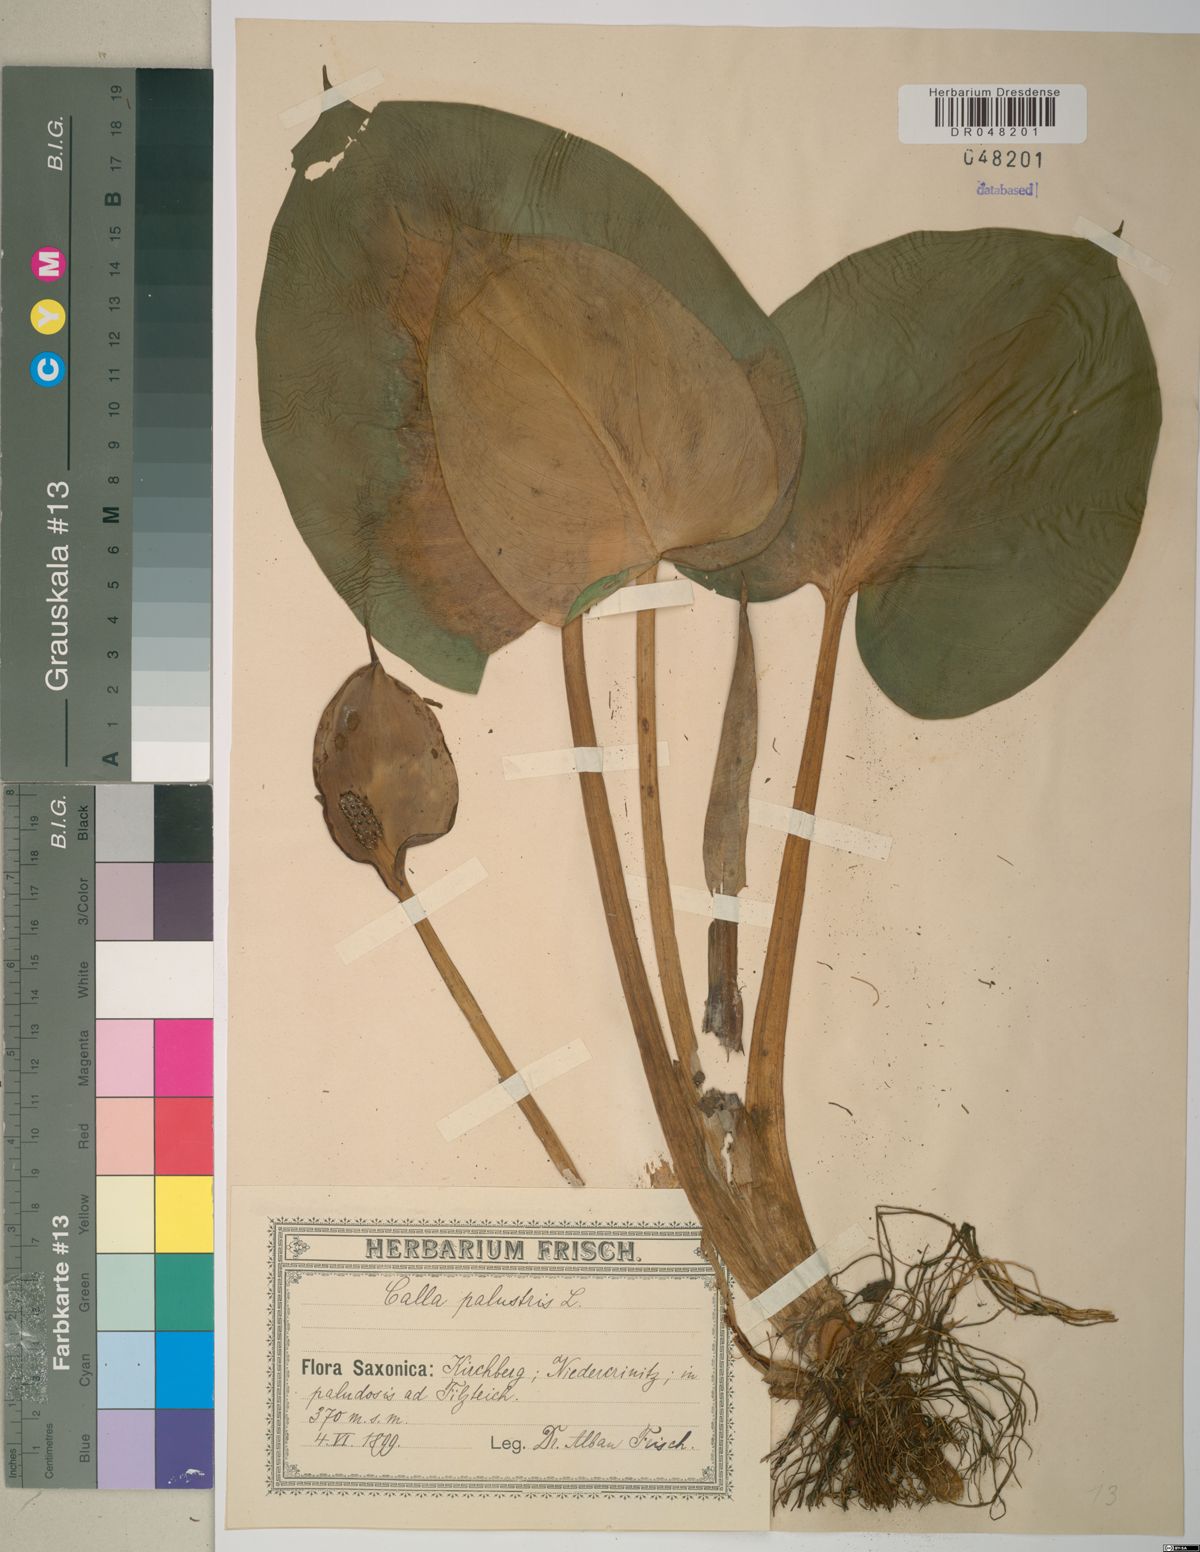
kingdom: Plantae
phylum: Tracheophyta
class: Liliopsida
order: Alismatales
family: Araceae
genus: Calla
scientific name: Calla palustris
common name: Bog arum
